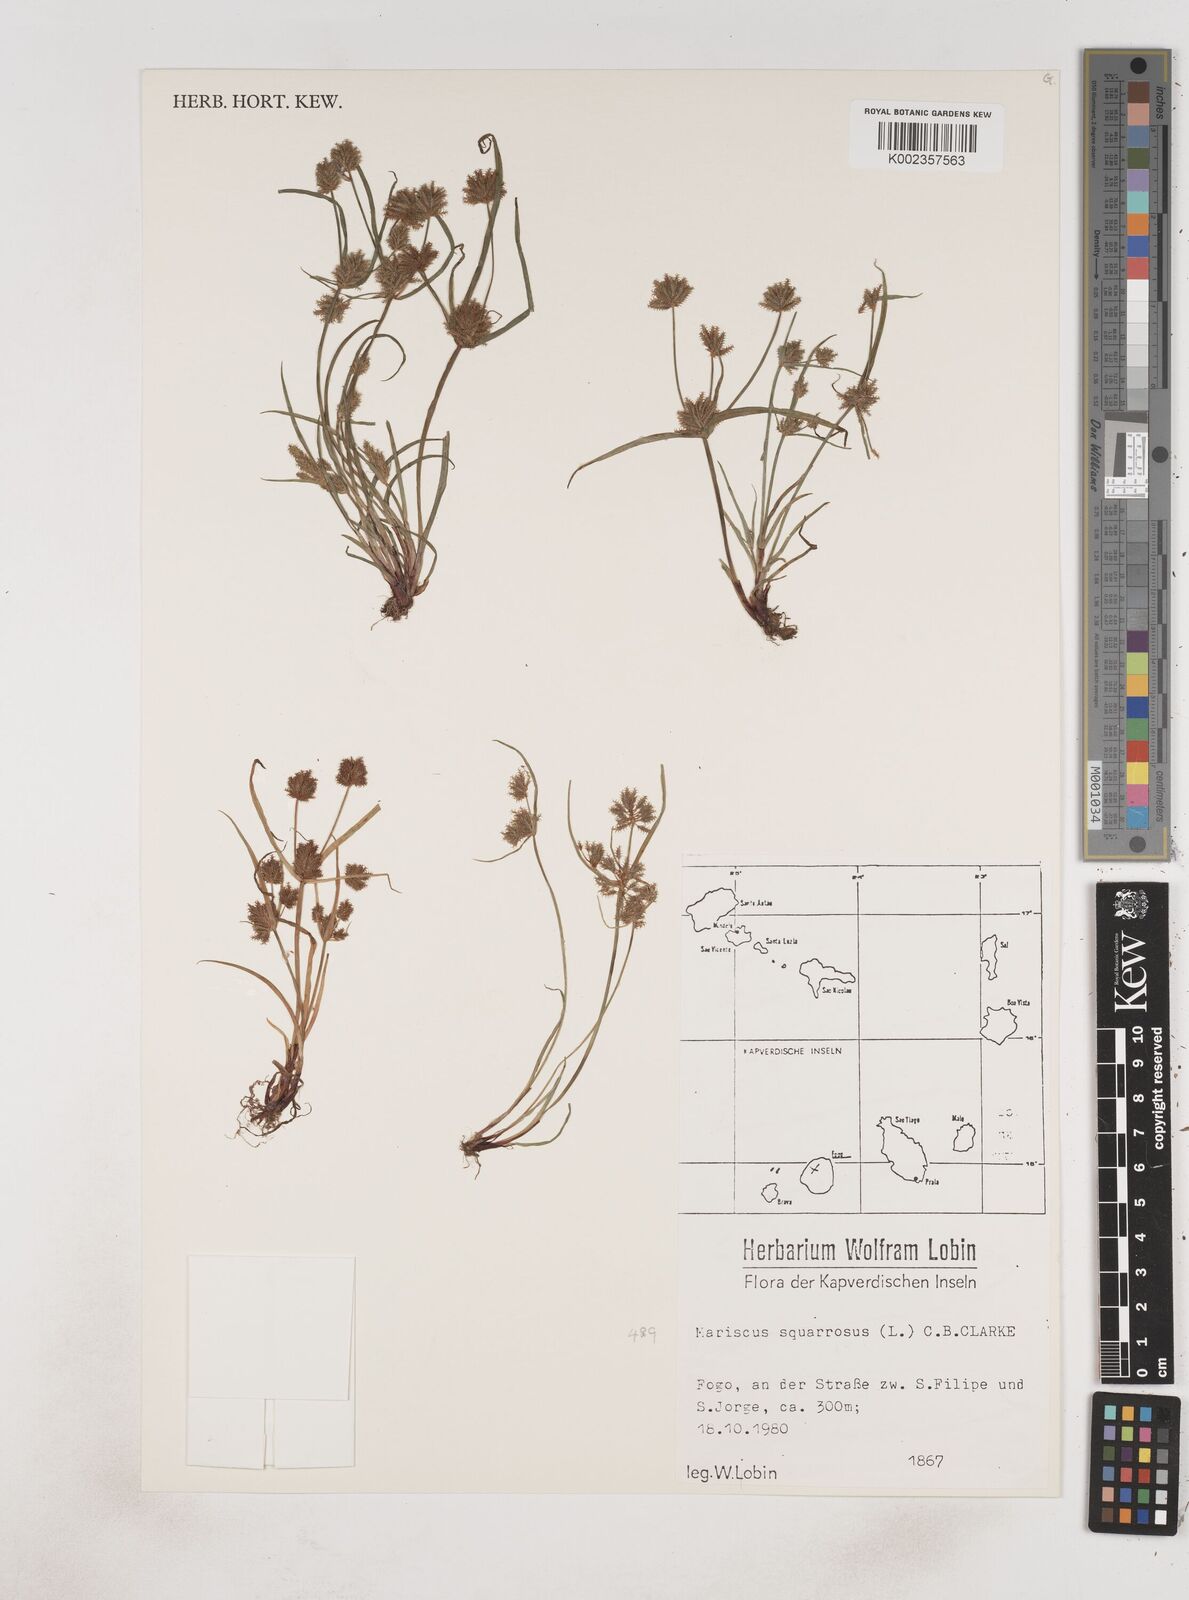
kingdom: Plantae
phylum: Tracheophyta
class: Liliopsida
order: Poales
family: Cyperaceae
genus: Cyperus
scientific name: Cyperus squarrosus
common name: Awned cyperus
